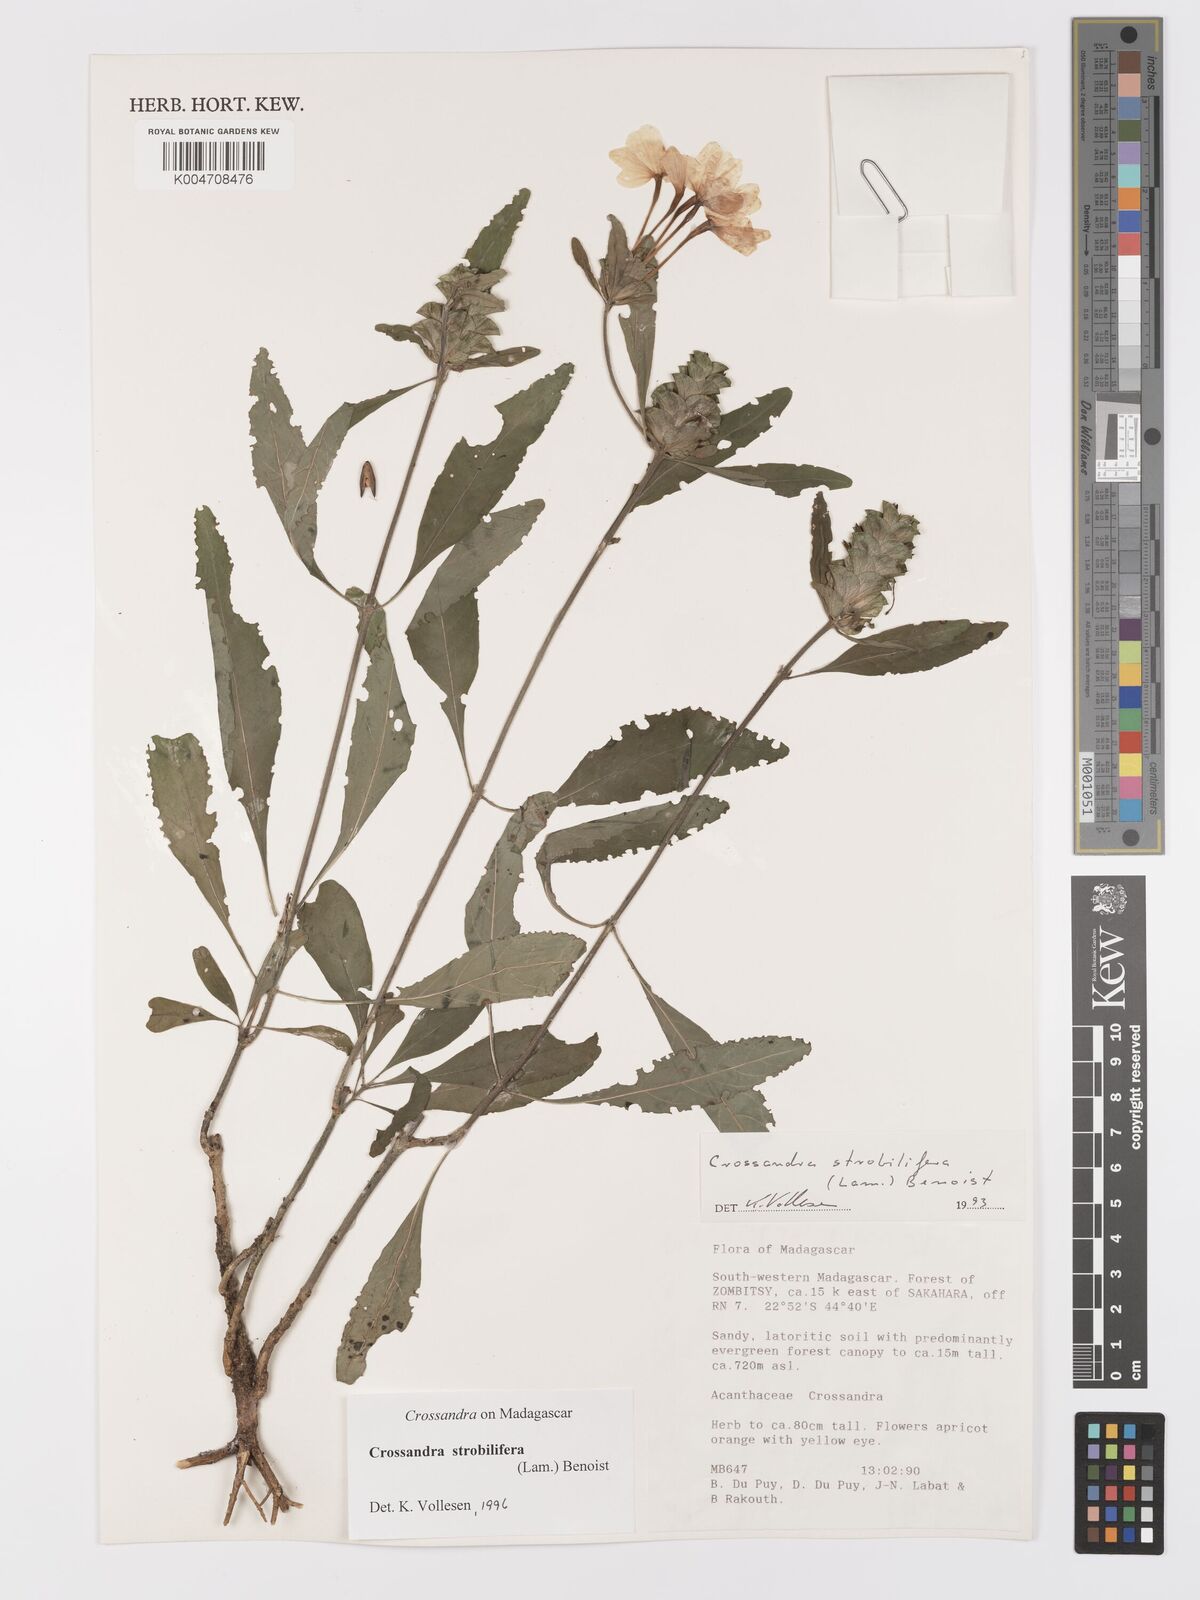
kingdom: Plantae
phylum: Tracheophyta
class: Magnoliopsida
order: Lamiales
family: Acanthaceae
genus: Crossandra
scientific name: Crossandra strobilifera
